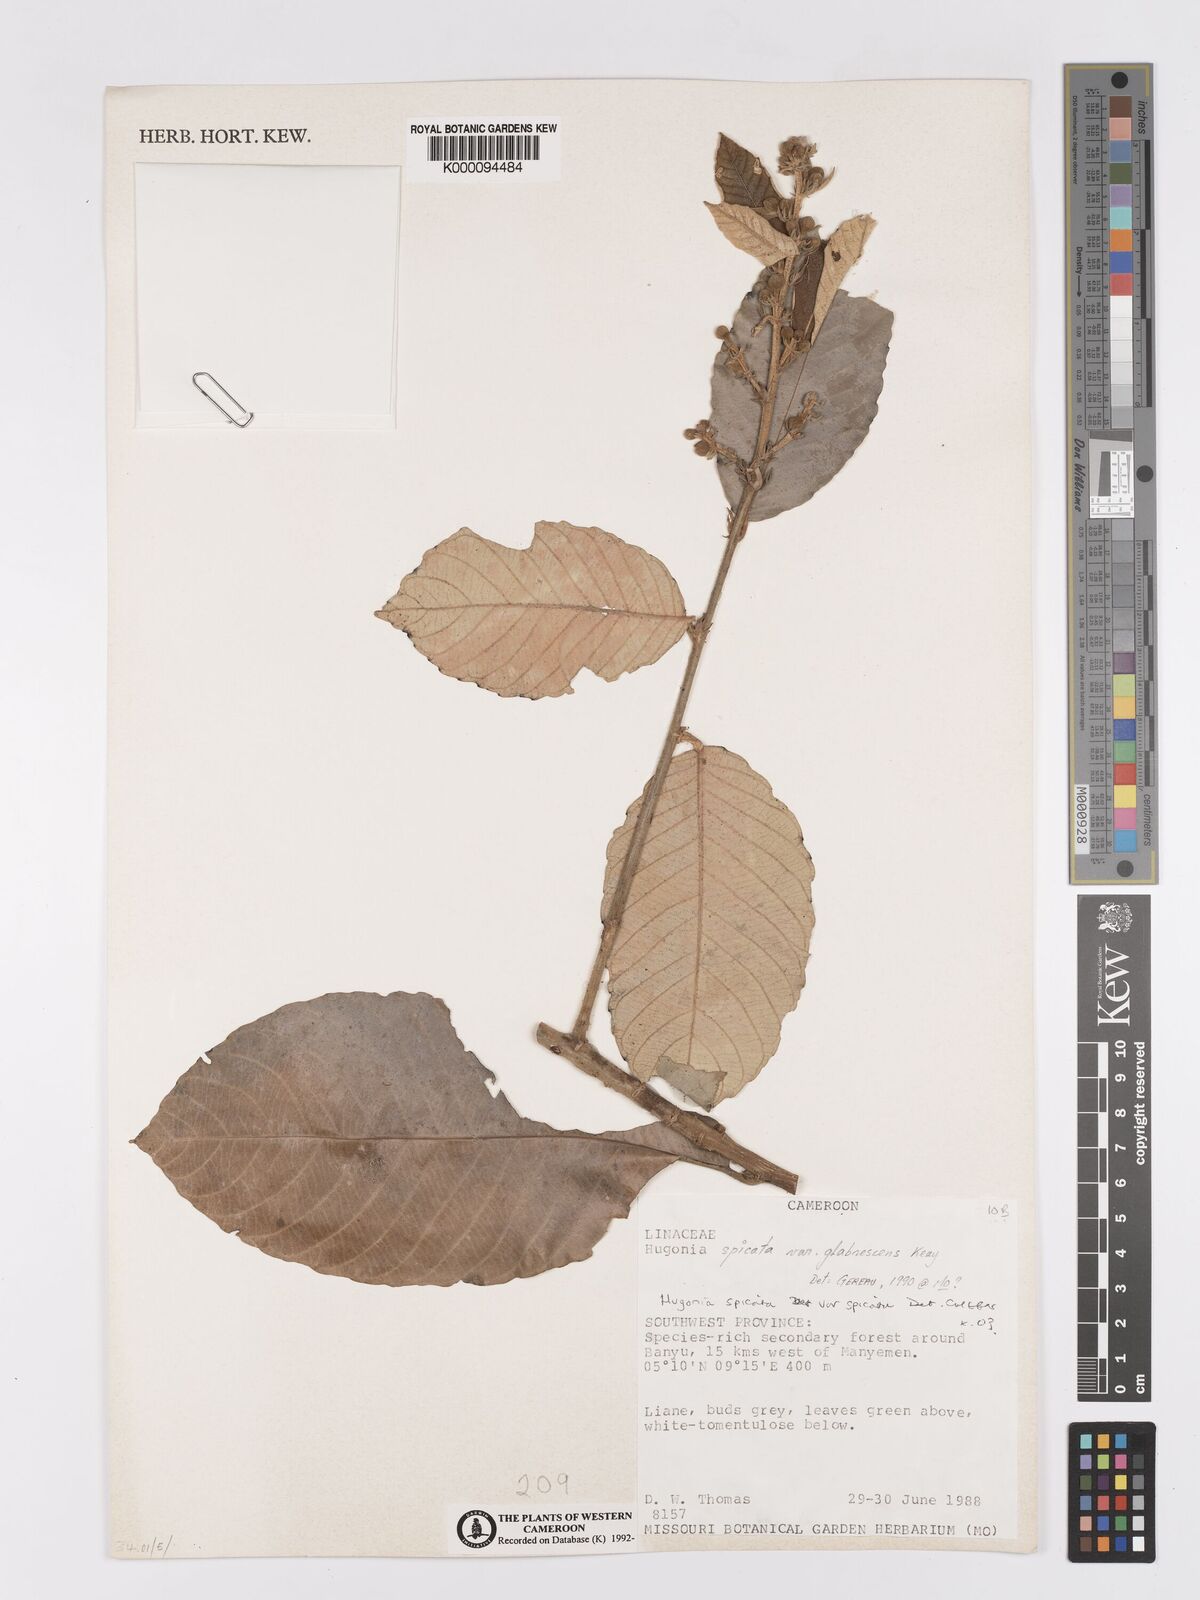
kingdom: Plantae
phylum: Tracheophyta
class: Magnoliopsida
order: Malpighiales
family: Linaceae
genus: Hugonia
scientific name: Hugonia spicata
